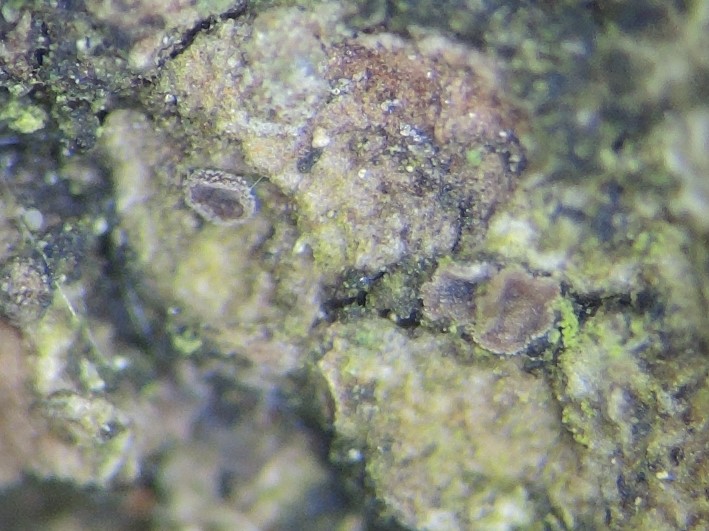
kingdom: Fungi
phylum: Ascomycota
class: Leotiomycetes
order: Helotiales
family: Hyaloscyphaceae
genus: Unguiculella
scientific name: Unguiculella robergei
